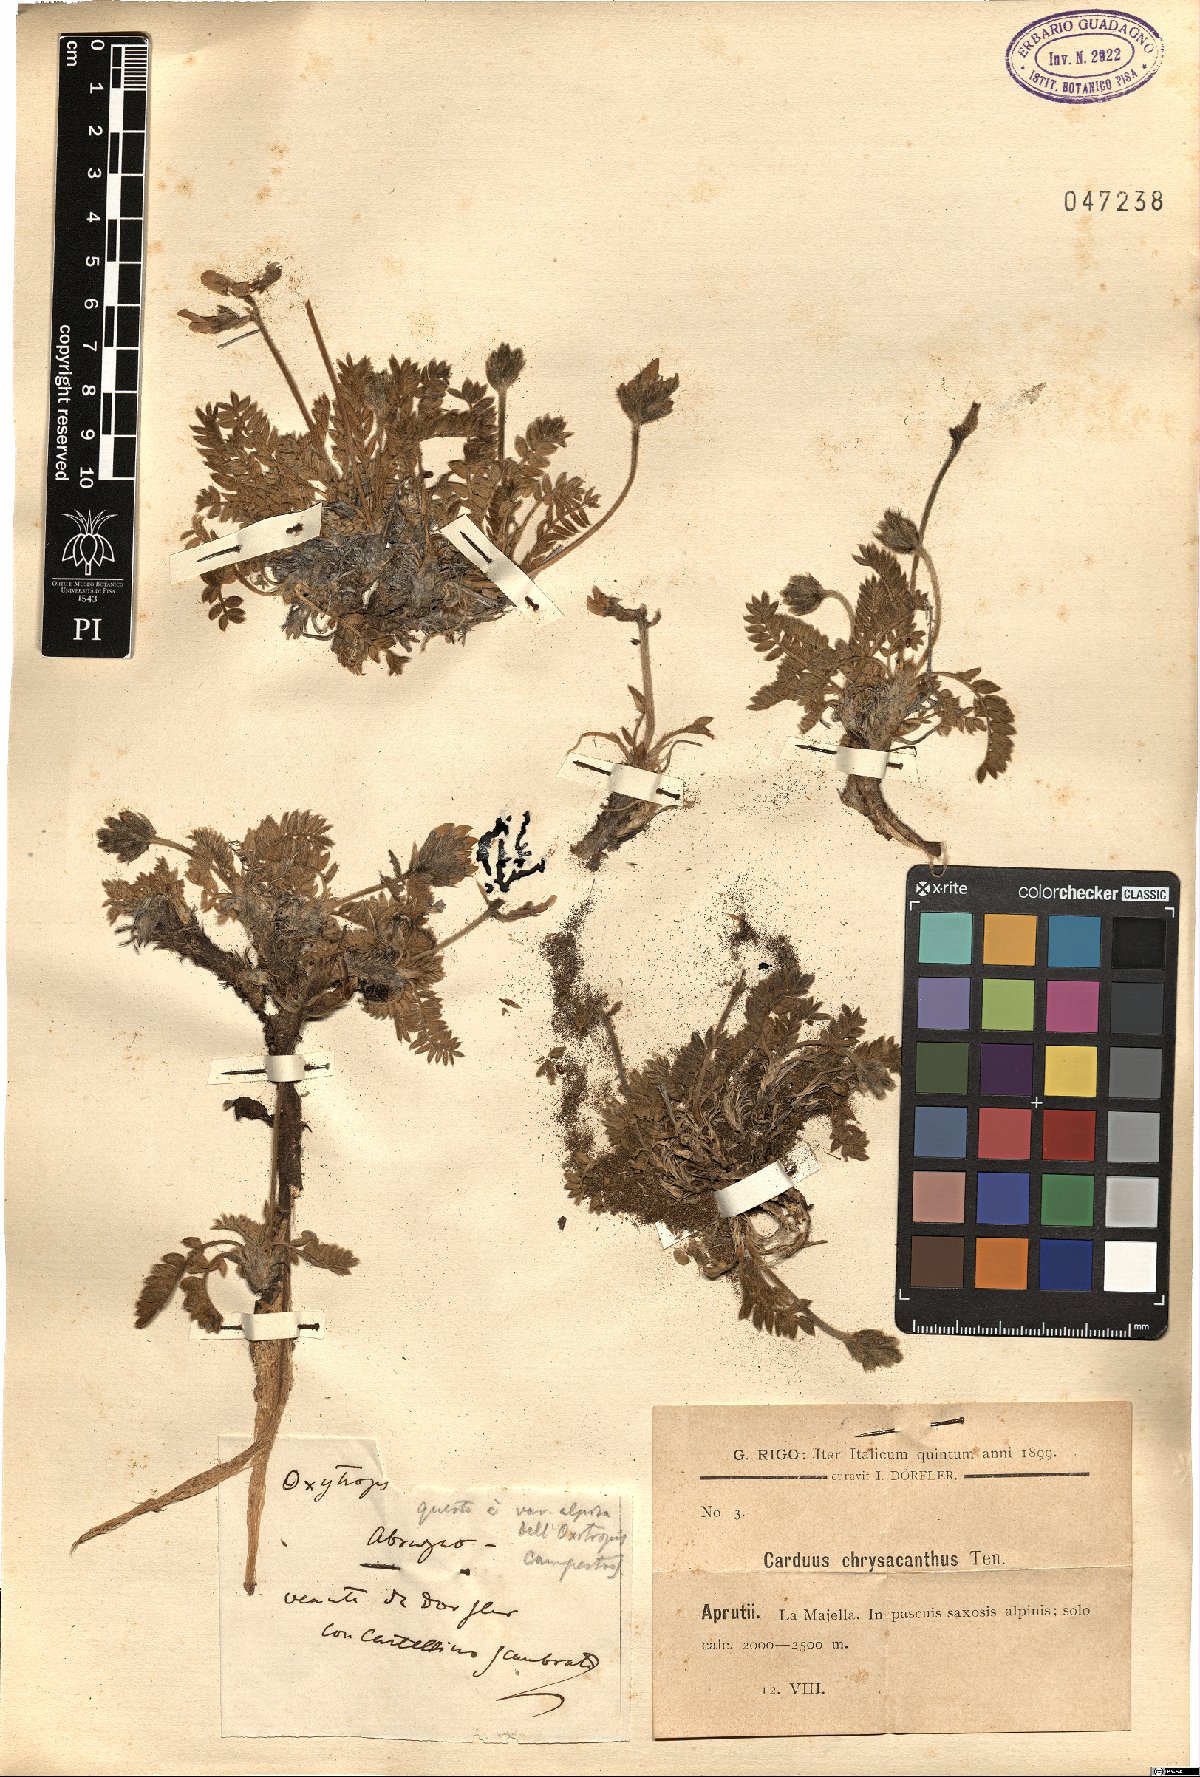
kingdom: Plantae
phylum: Tracheophyta
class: Magnoliopsida
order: Fabales
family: Fabaceae
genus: Oxytropis
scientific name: Oxytropis campestris
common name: Field locoweed
